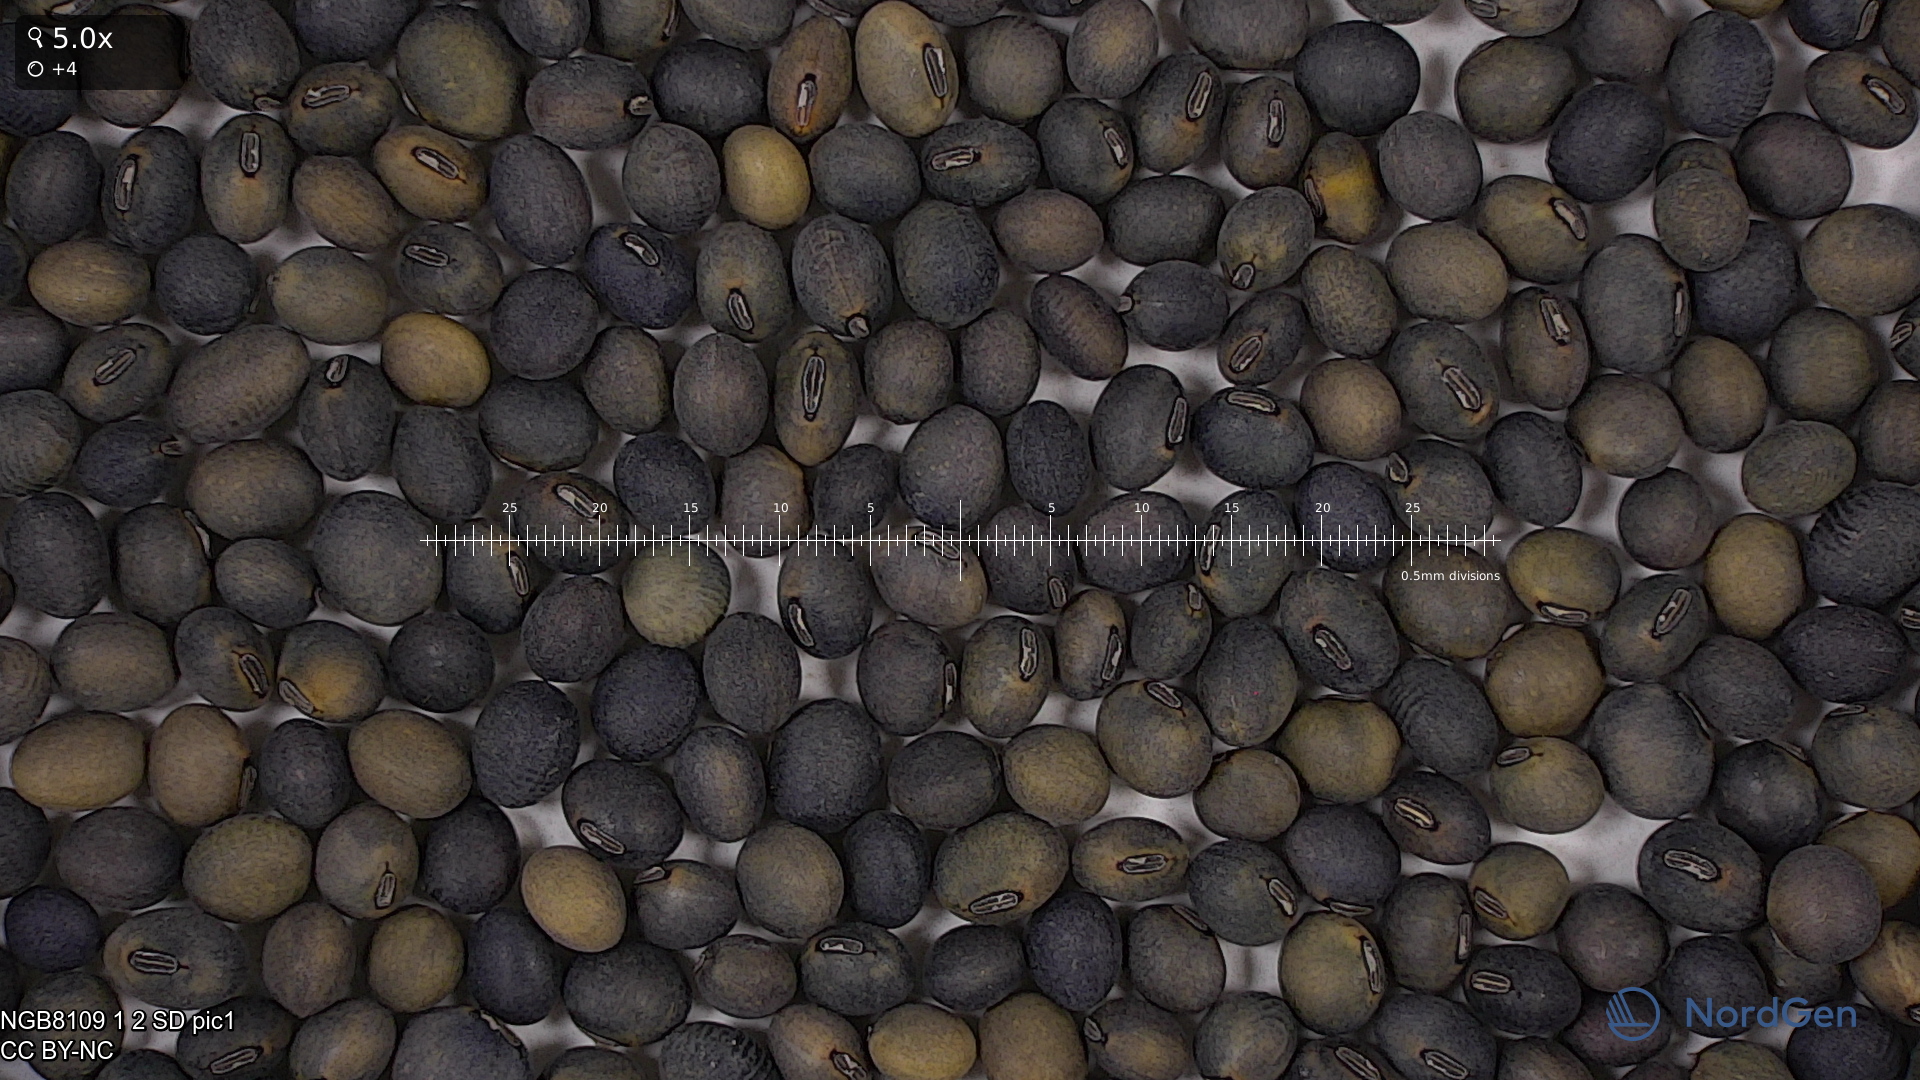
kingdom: Plantae
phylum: Tracheophyta
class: Magnoliopsida
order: Fabales
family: Fabaceae
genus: Glycine
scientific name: Glycine max
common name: Soya-bean
